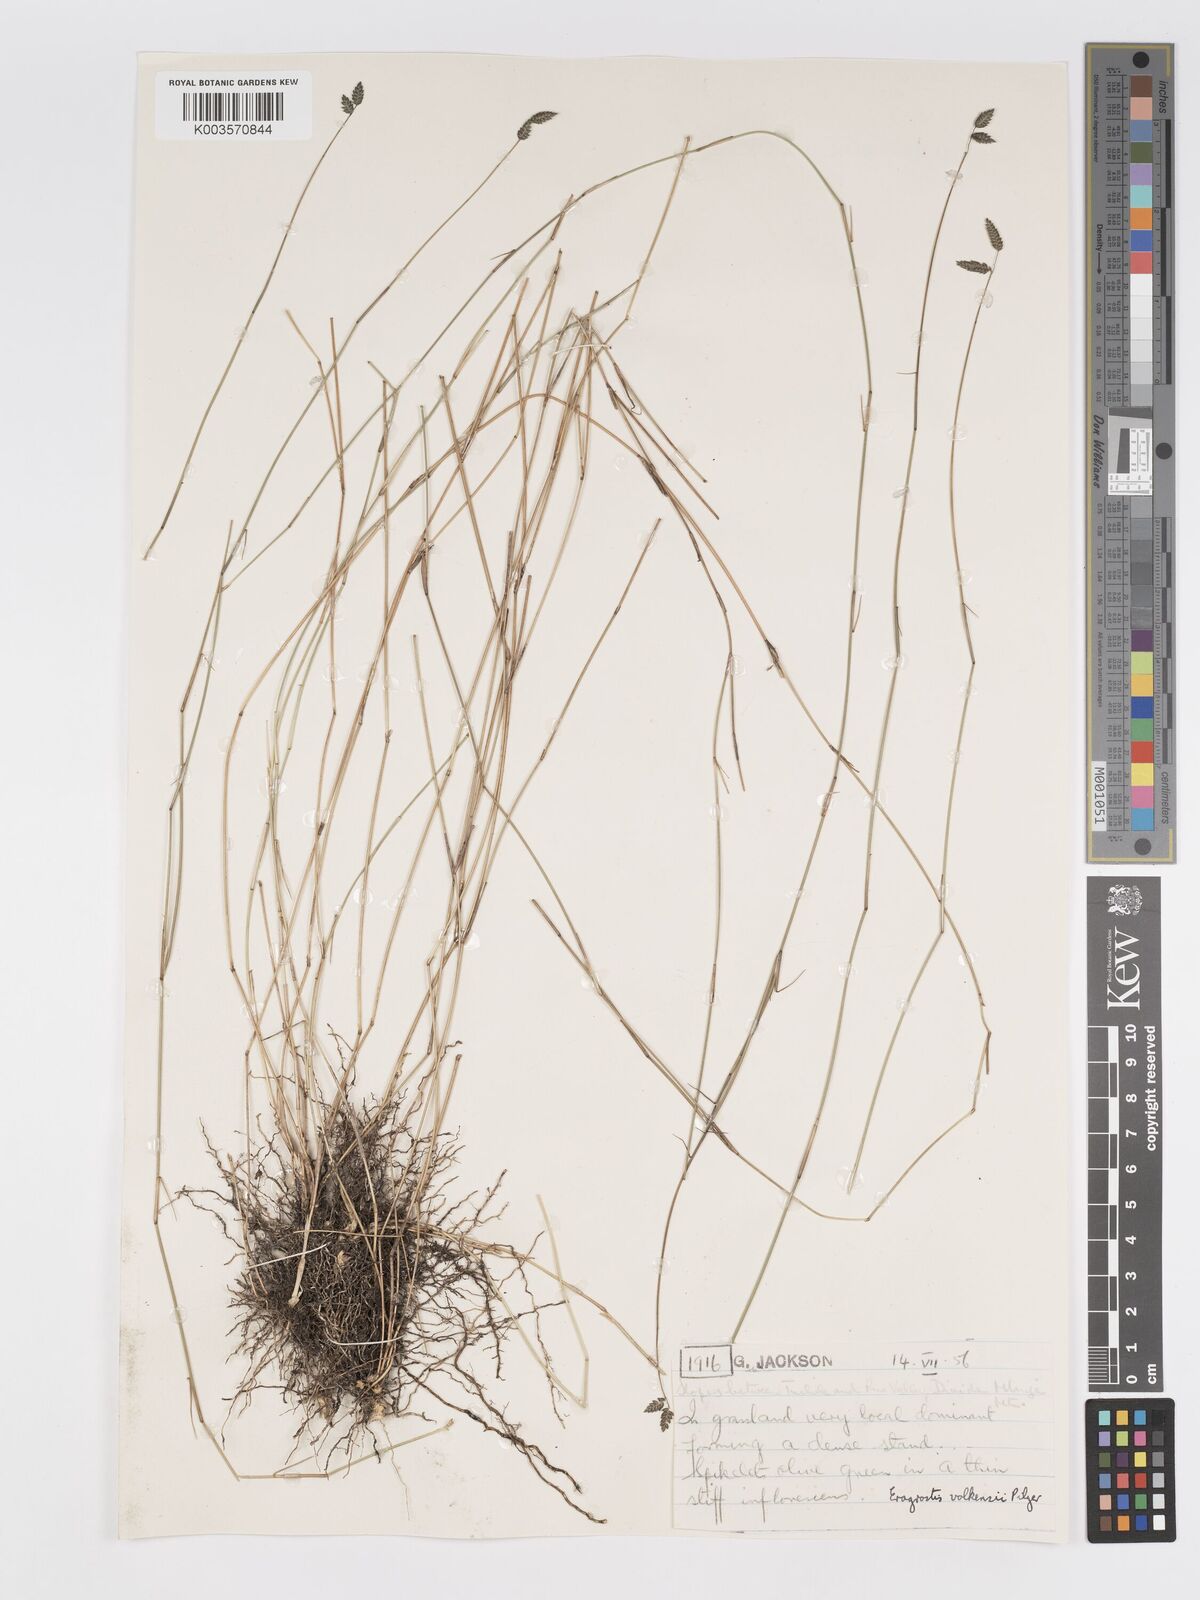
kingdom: Plantae
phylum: Tracheophyta
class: Liliopsida
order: Poales
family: Poaceae
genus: Eragrostis
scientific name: Eragrostis volkensii
